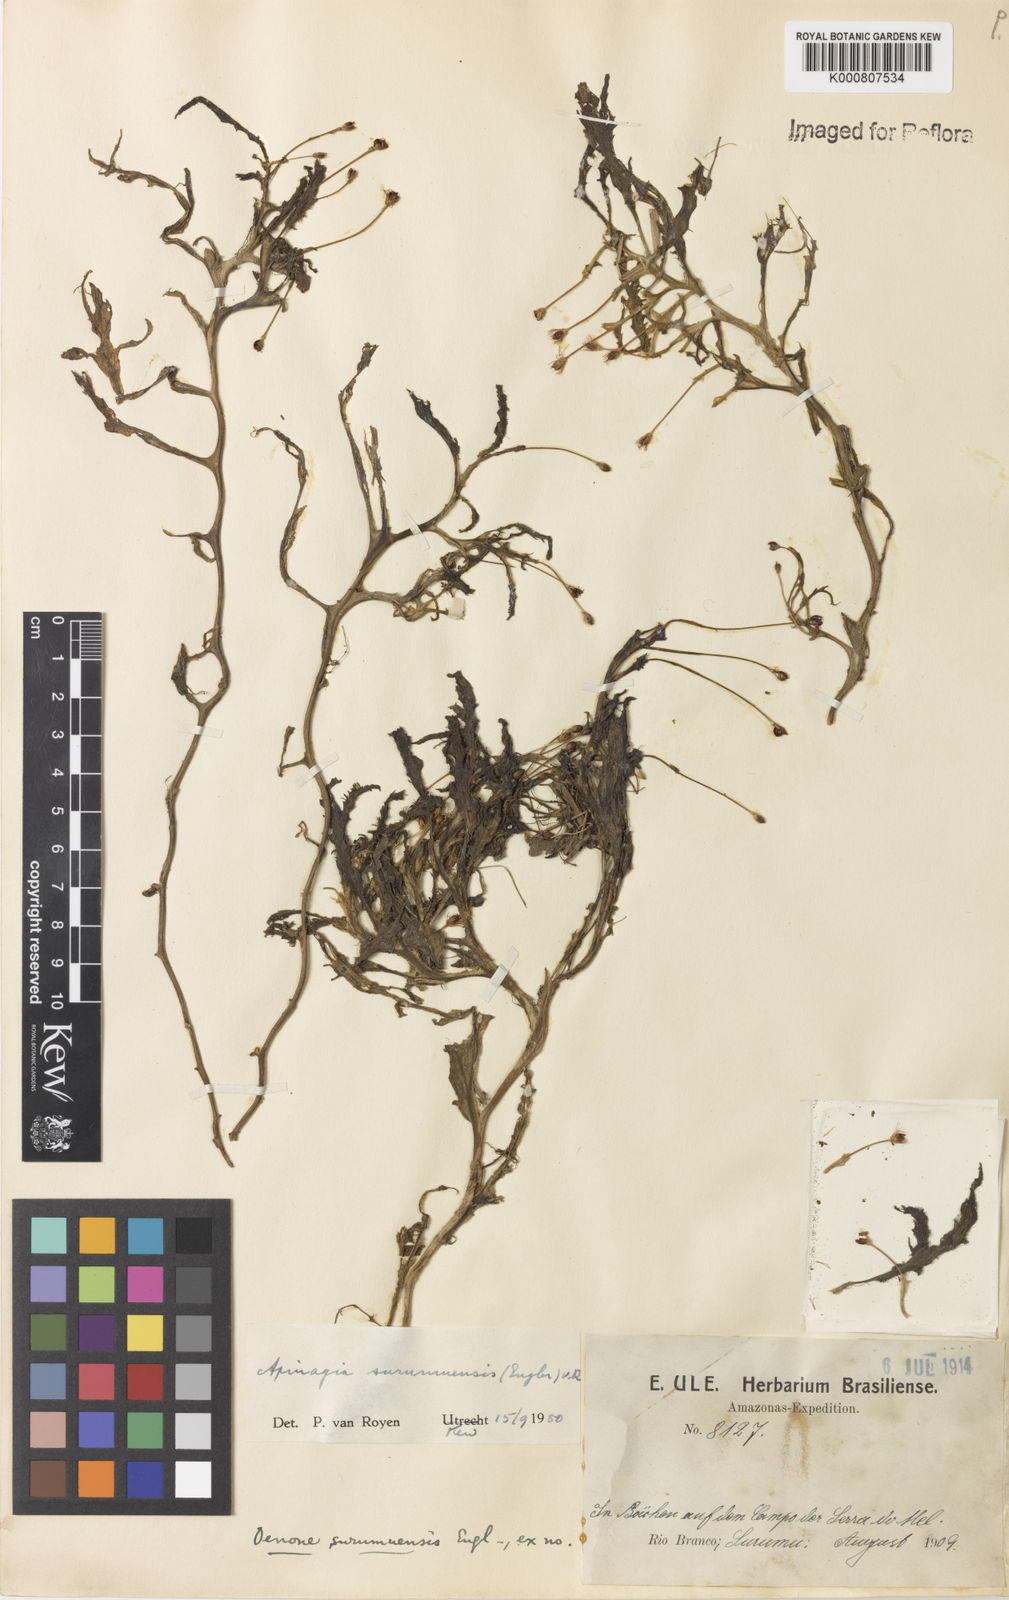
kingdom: Plantae
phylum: Tracheophyta
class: Magnoliopsida
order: Malpighiales
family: Podostemaceae
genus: Apinagia
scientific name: Apinagia surumuensis
